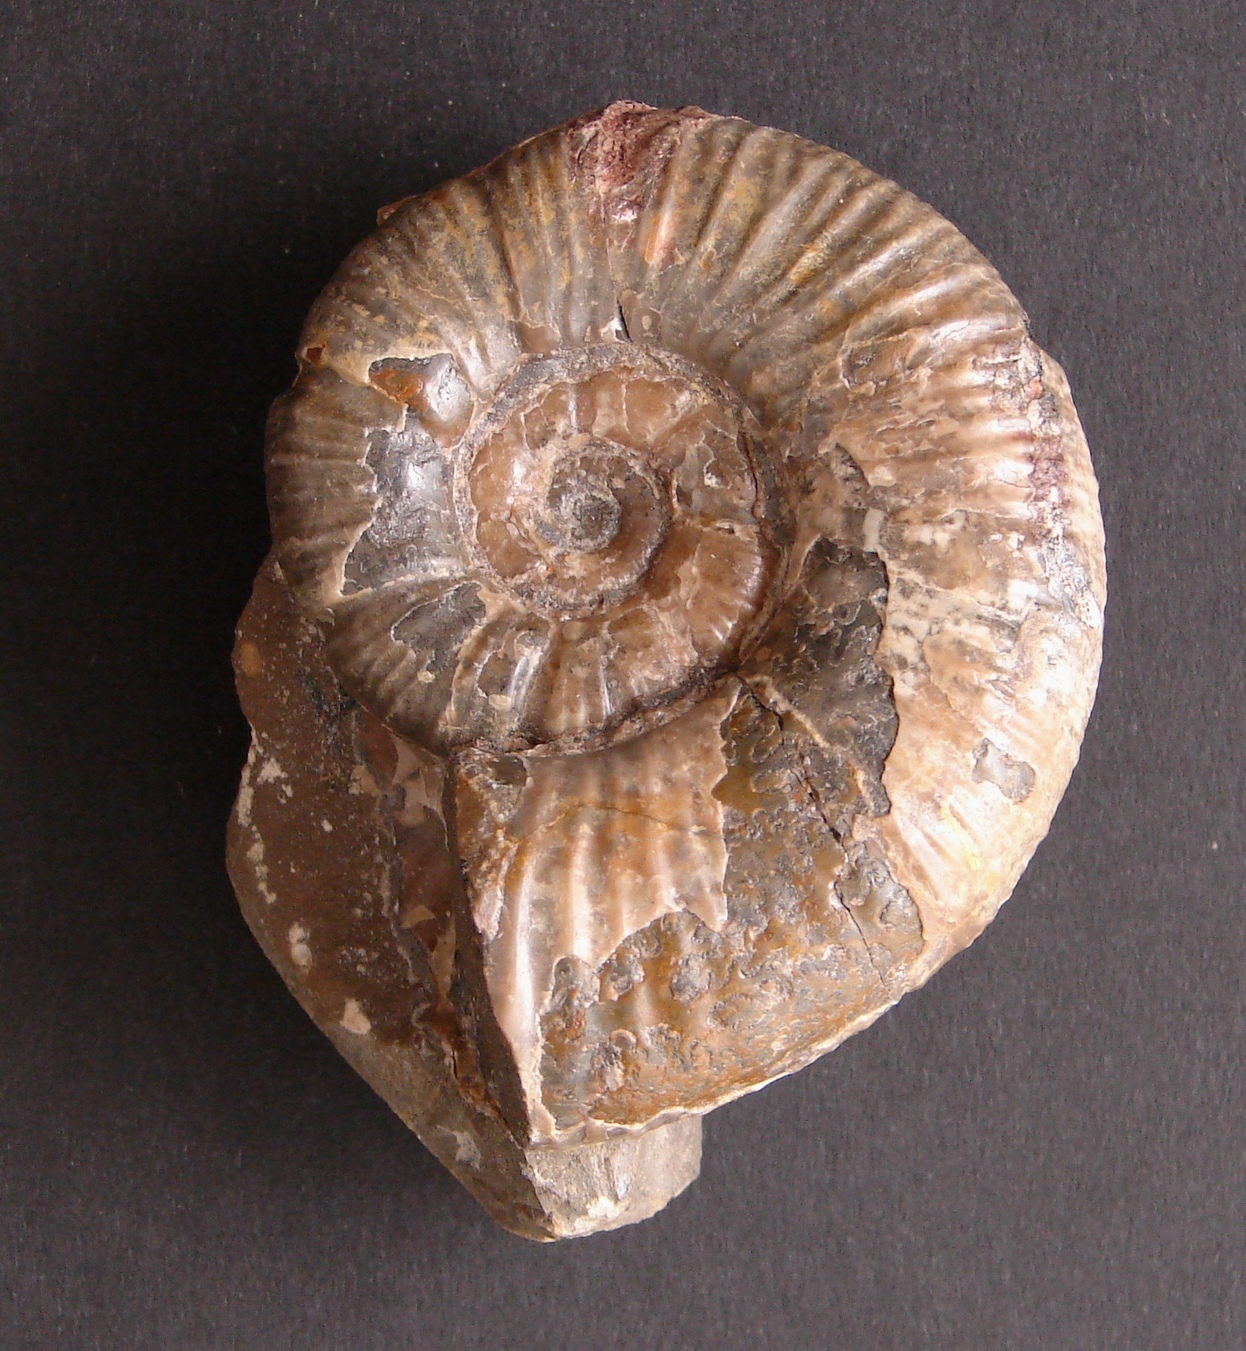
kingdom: Animalia
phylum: Mollusca
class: Cephalopoda
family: Lytoceratidae
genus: Lytoceras
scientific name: Lytoceras
